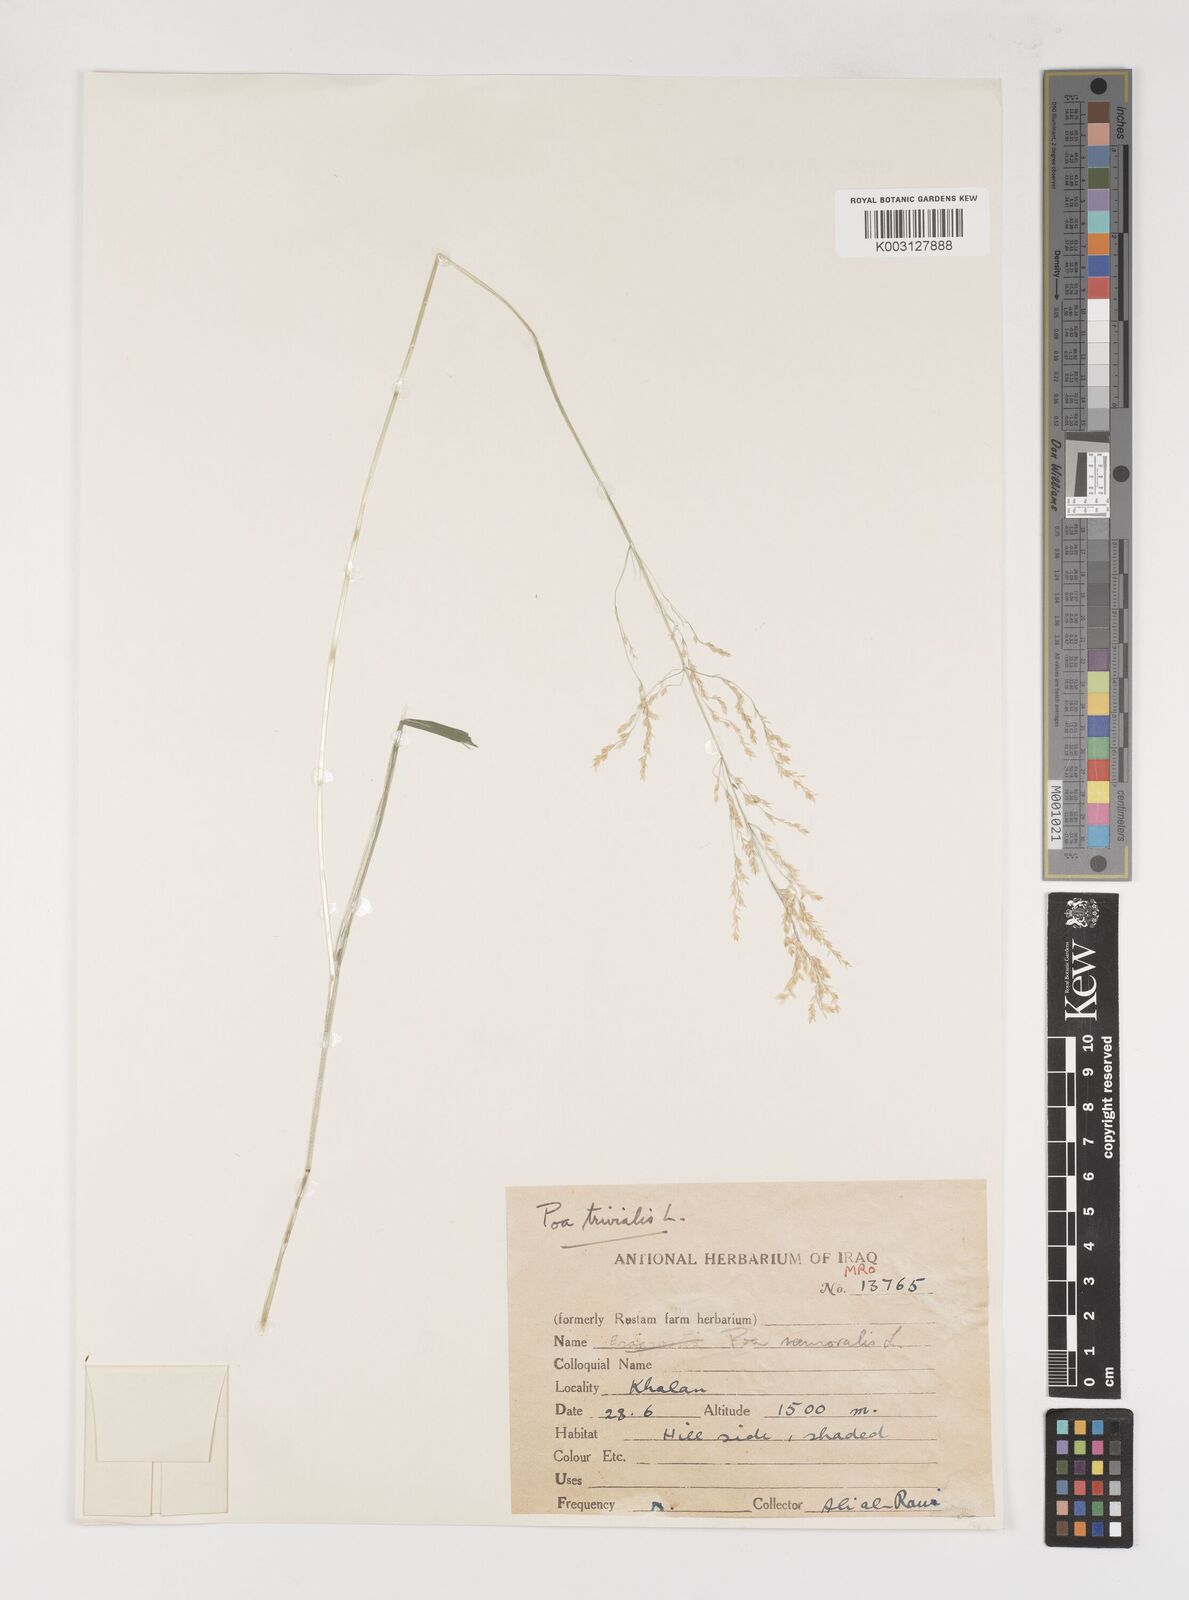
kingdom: Plantae
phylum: Tracheophyta
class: Liliopsida
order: Poales
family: Poaceae
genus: Poa
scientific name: Poa trivialis
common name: Rough bluegrass
